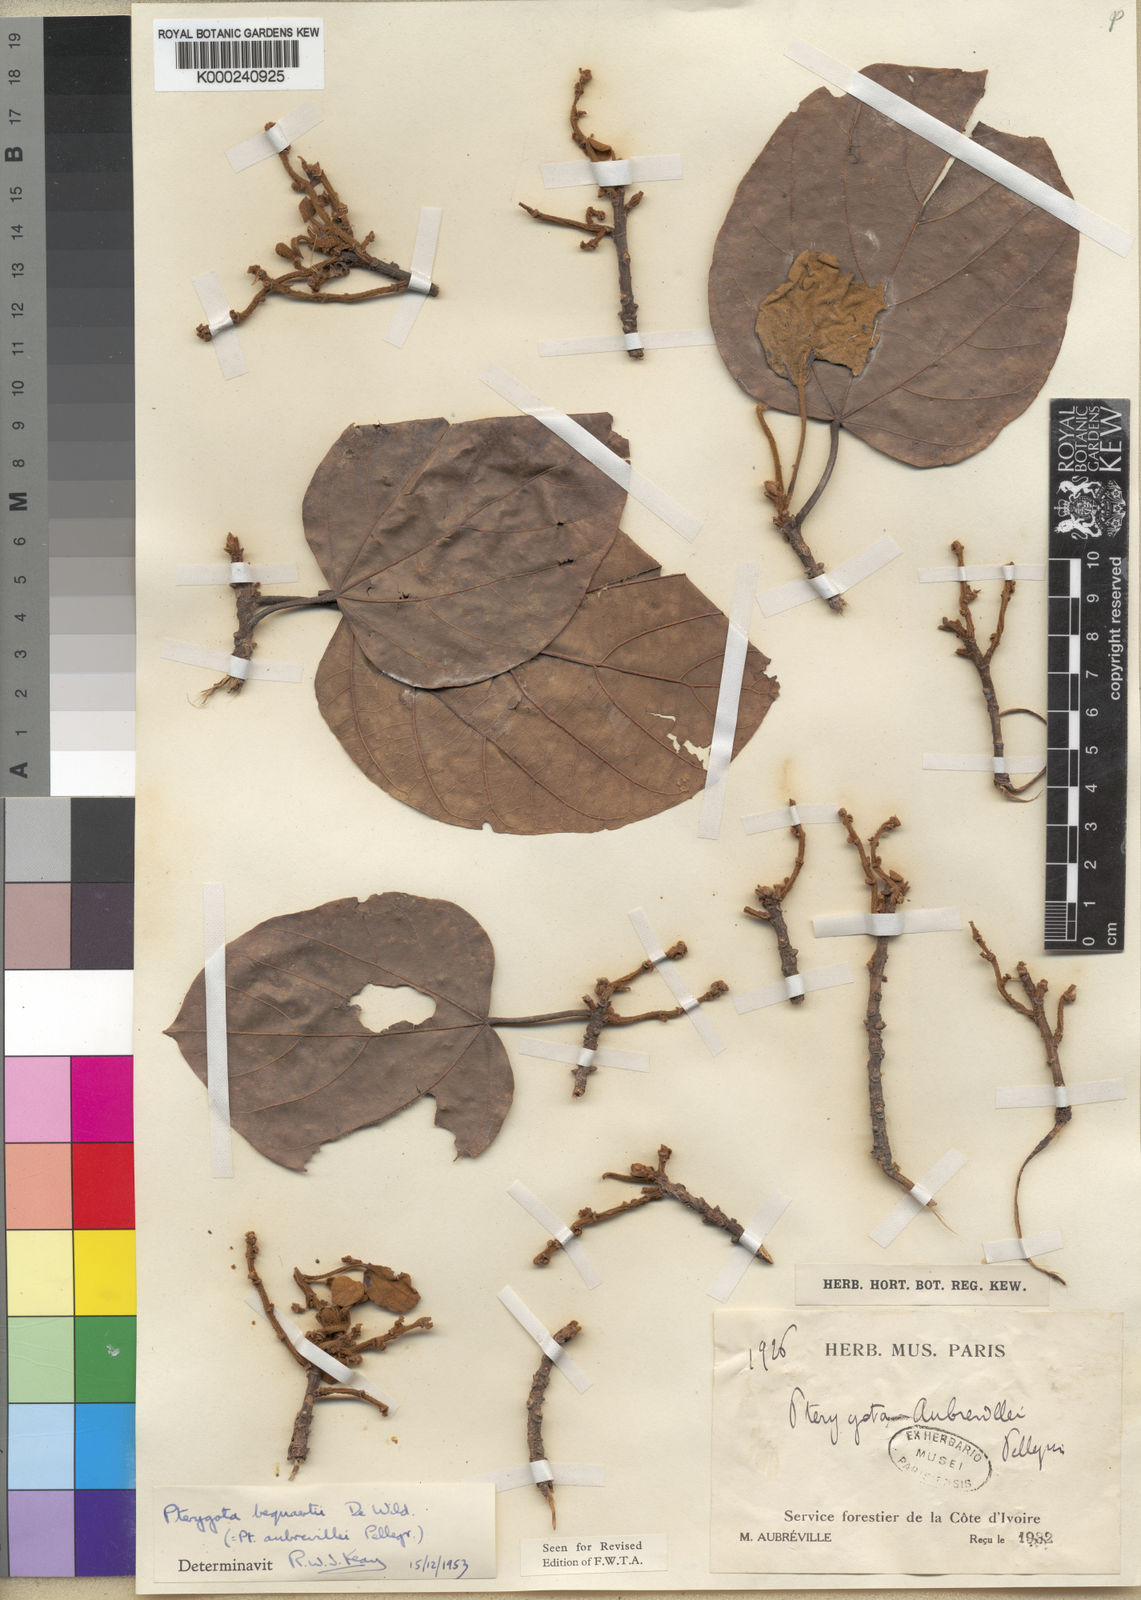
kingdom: Plantae
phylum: Tracheophyta
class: Magnoliopsida
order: Malvales
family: Malvaceae
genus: Pterygota
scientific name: Pterygota bequaertii
